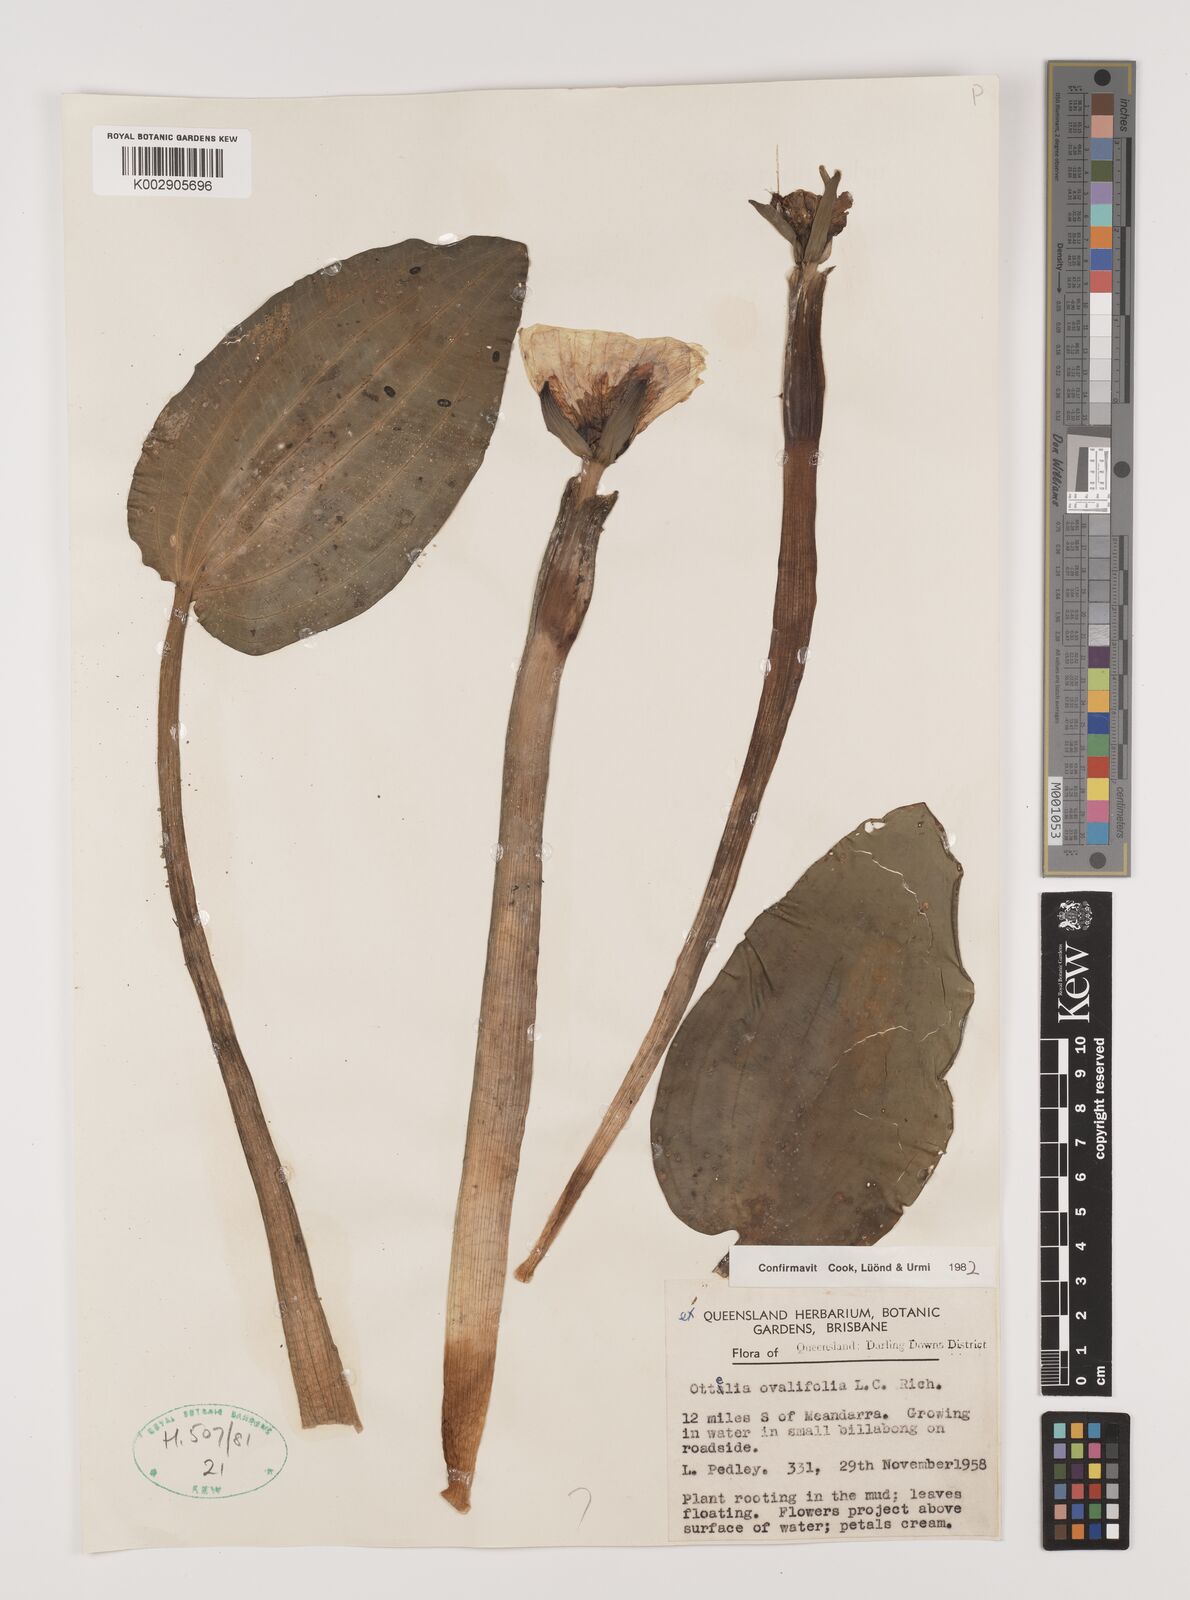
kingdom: Plantae
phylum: Tracheophyta
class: Liliopsida
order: Alismatales
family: Hydrocharitaceae
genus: Ottelia
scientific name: Ottelia ovalifolia
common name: Swamp-lily
